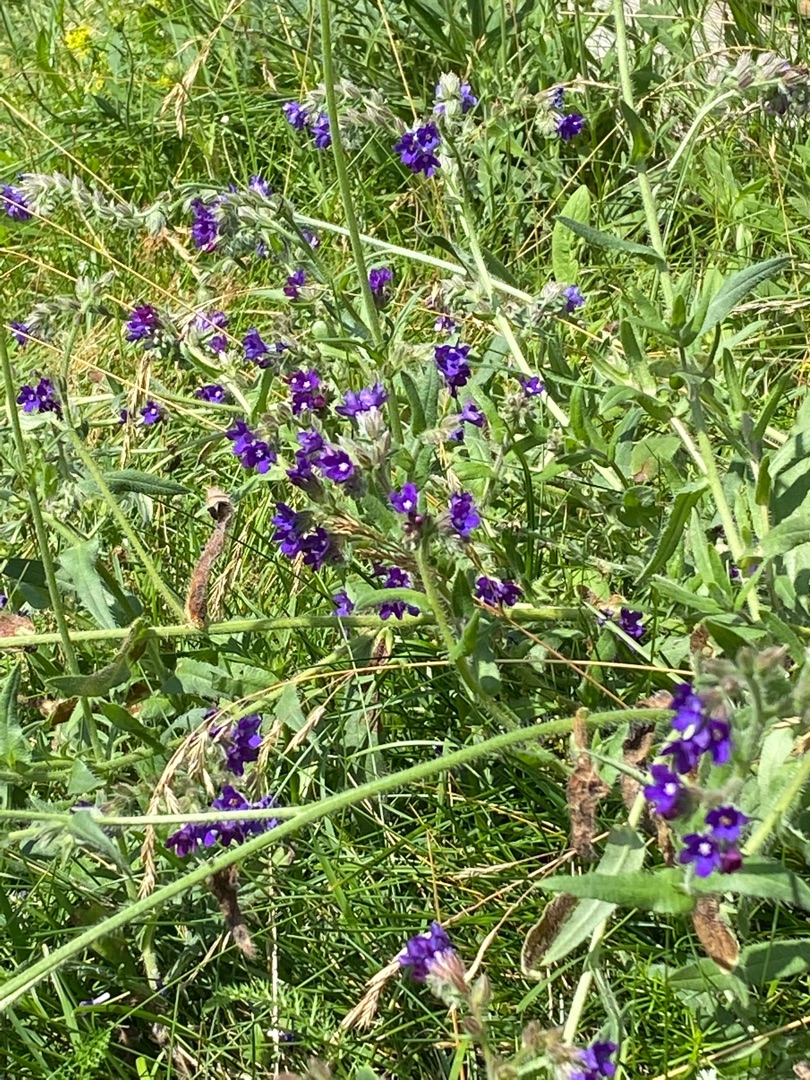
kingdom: Plantae
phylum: Tracheophyta
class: Magnoliopsida
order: Boraginales
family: Boraginaceae
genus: Anchusa
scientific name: Anchusa officinalis
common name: Læge-oksetunge
